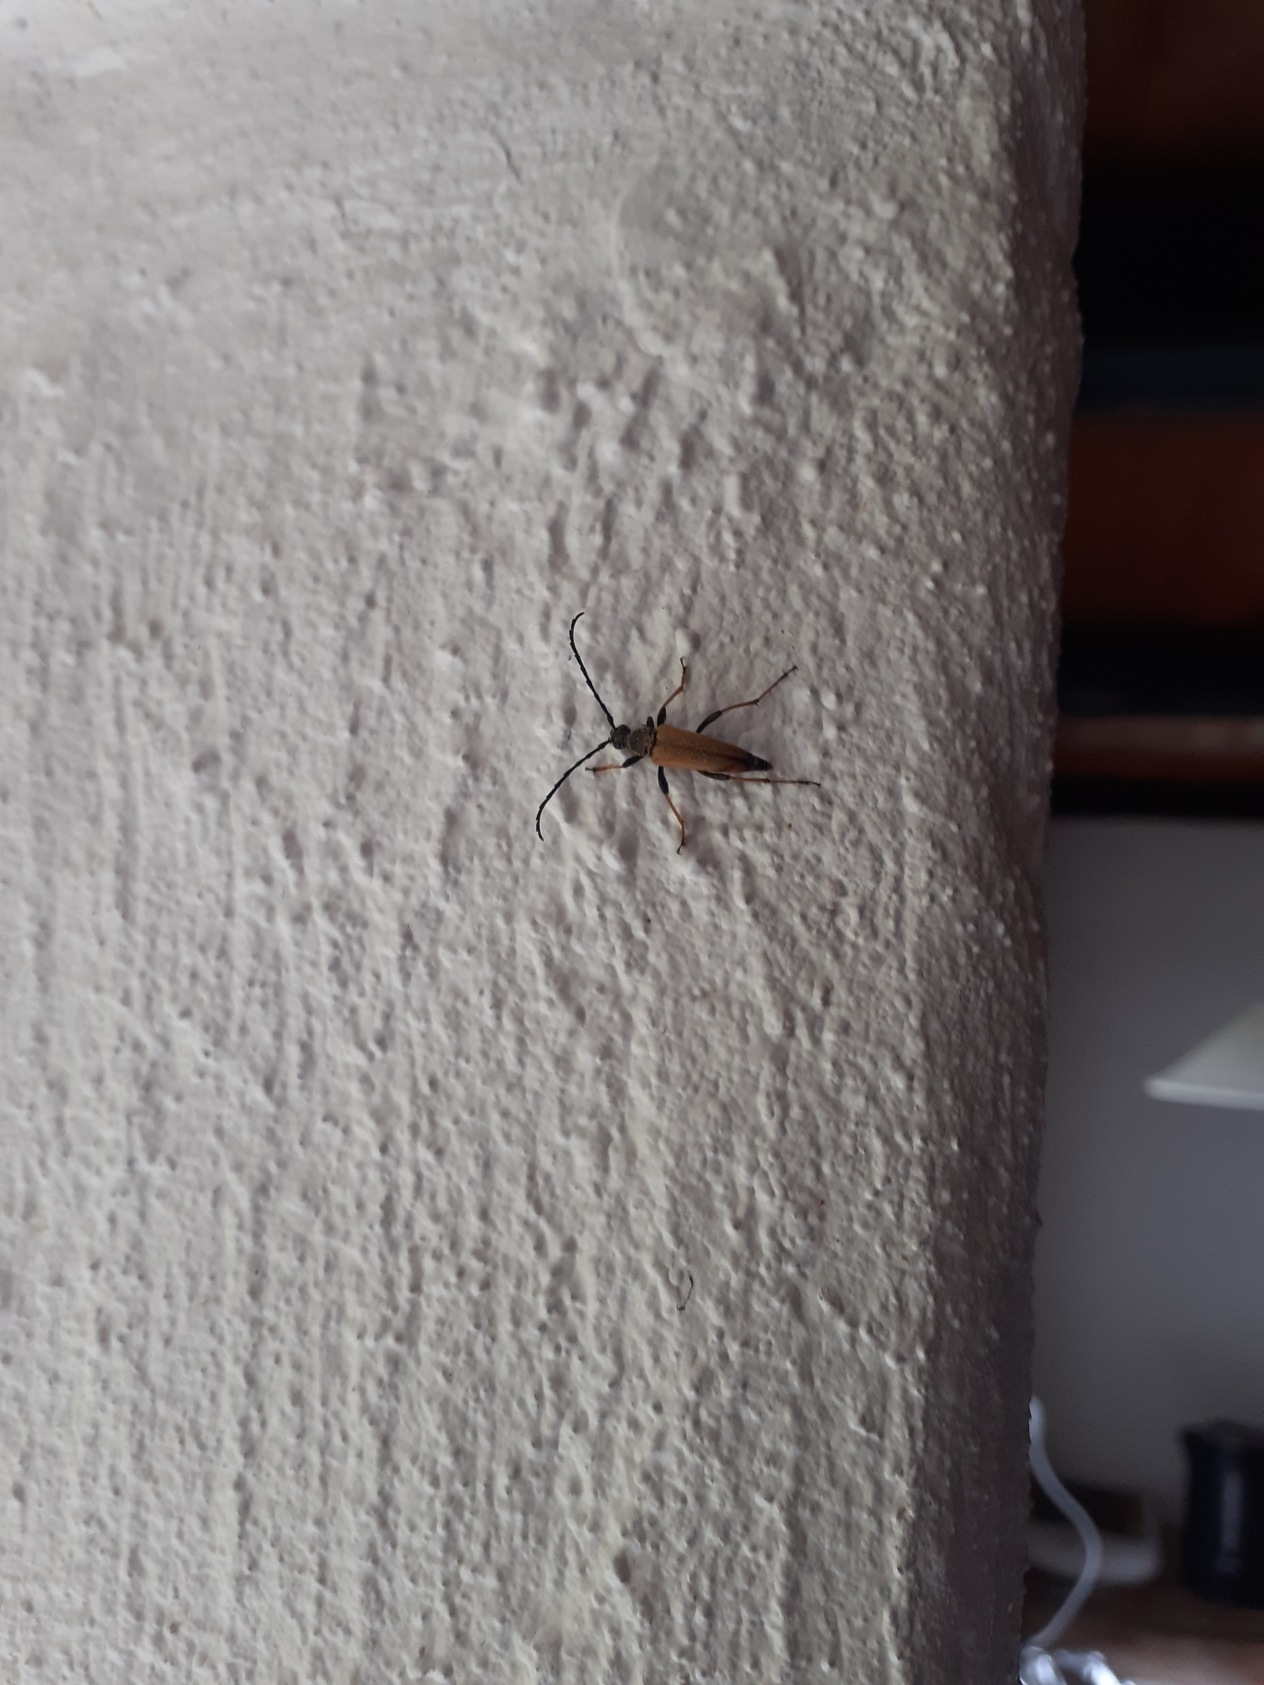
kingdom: Animalia
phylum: Arthropoda
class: Insecta
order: Coleoptera
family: Cerambycidae
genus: Stictoleptura
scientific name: Stictoleptura rubra
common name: Rød blomsterbuk
